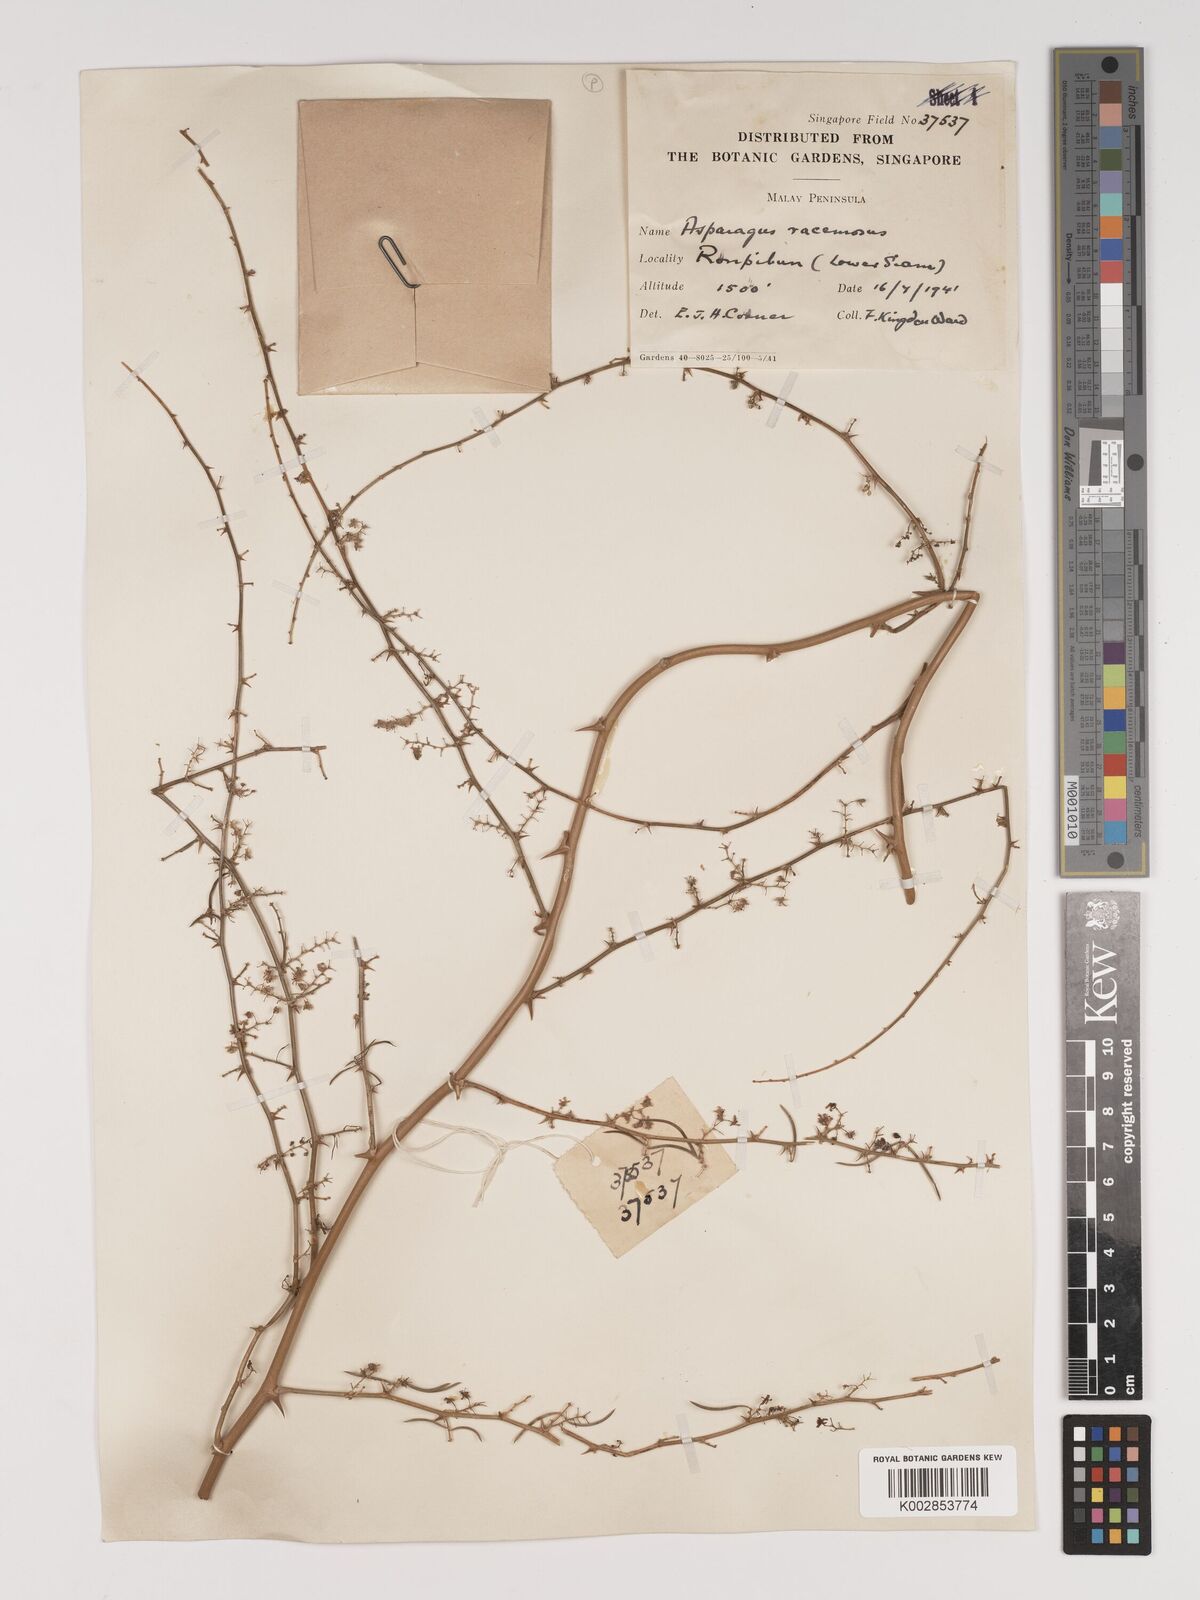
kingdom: Plantae
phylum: Tracheophyta
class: Liliopsida
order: Asparagales
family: Asparagaceae
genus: Asparagus
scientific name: Asparagus racemosus
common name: Asparagus-fern
